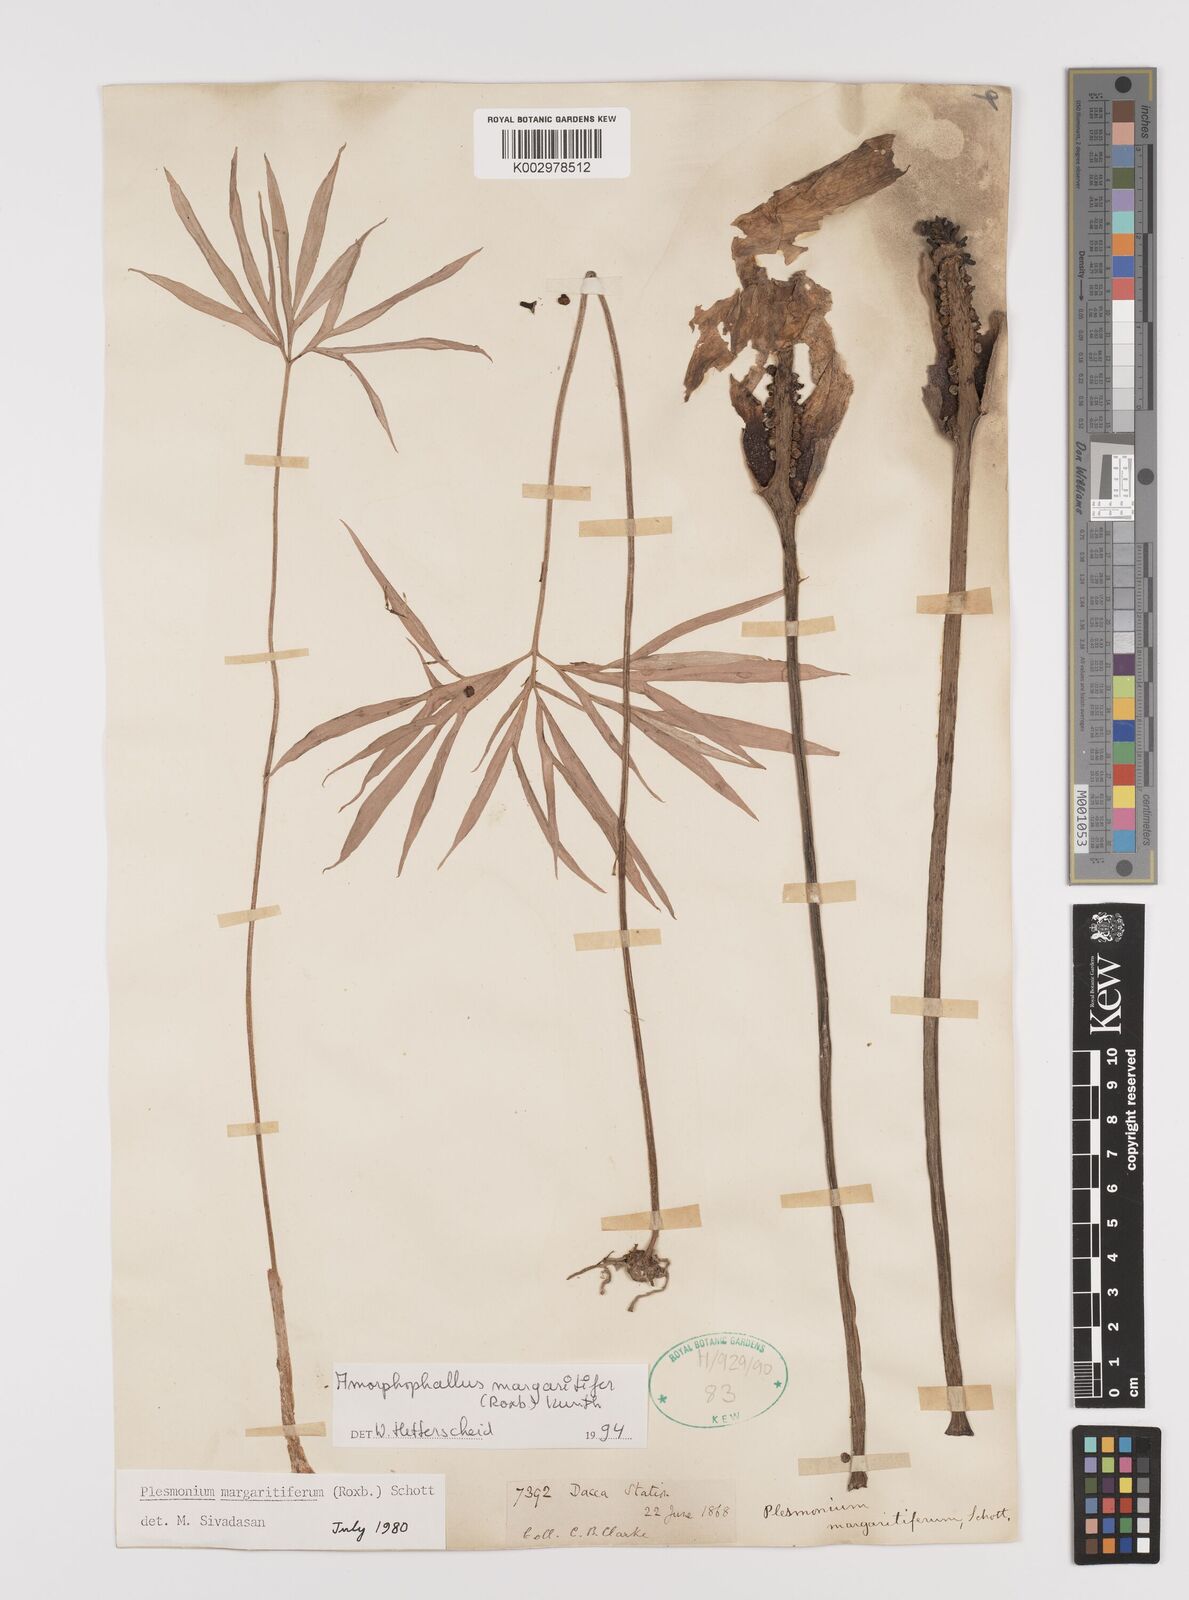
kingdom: Plantae
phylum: Tracheophyta
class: Liliopsida
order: Alismatales
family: Araceae
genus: Amorphophallus
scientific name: Amorphophallus margaritifer
